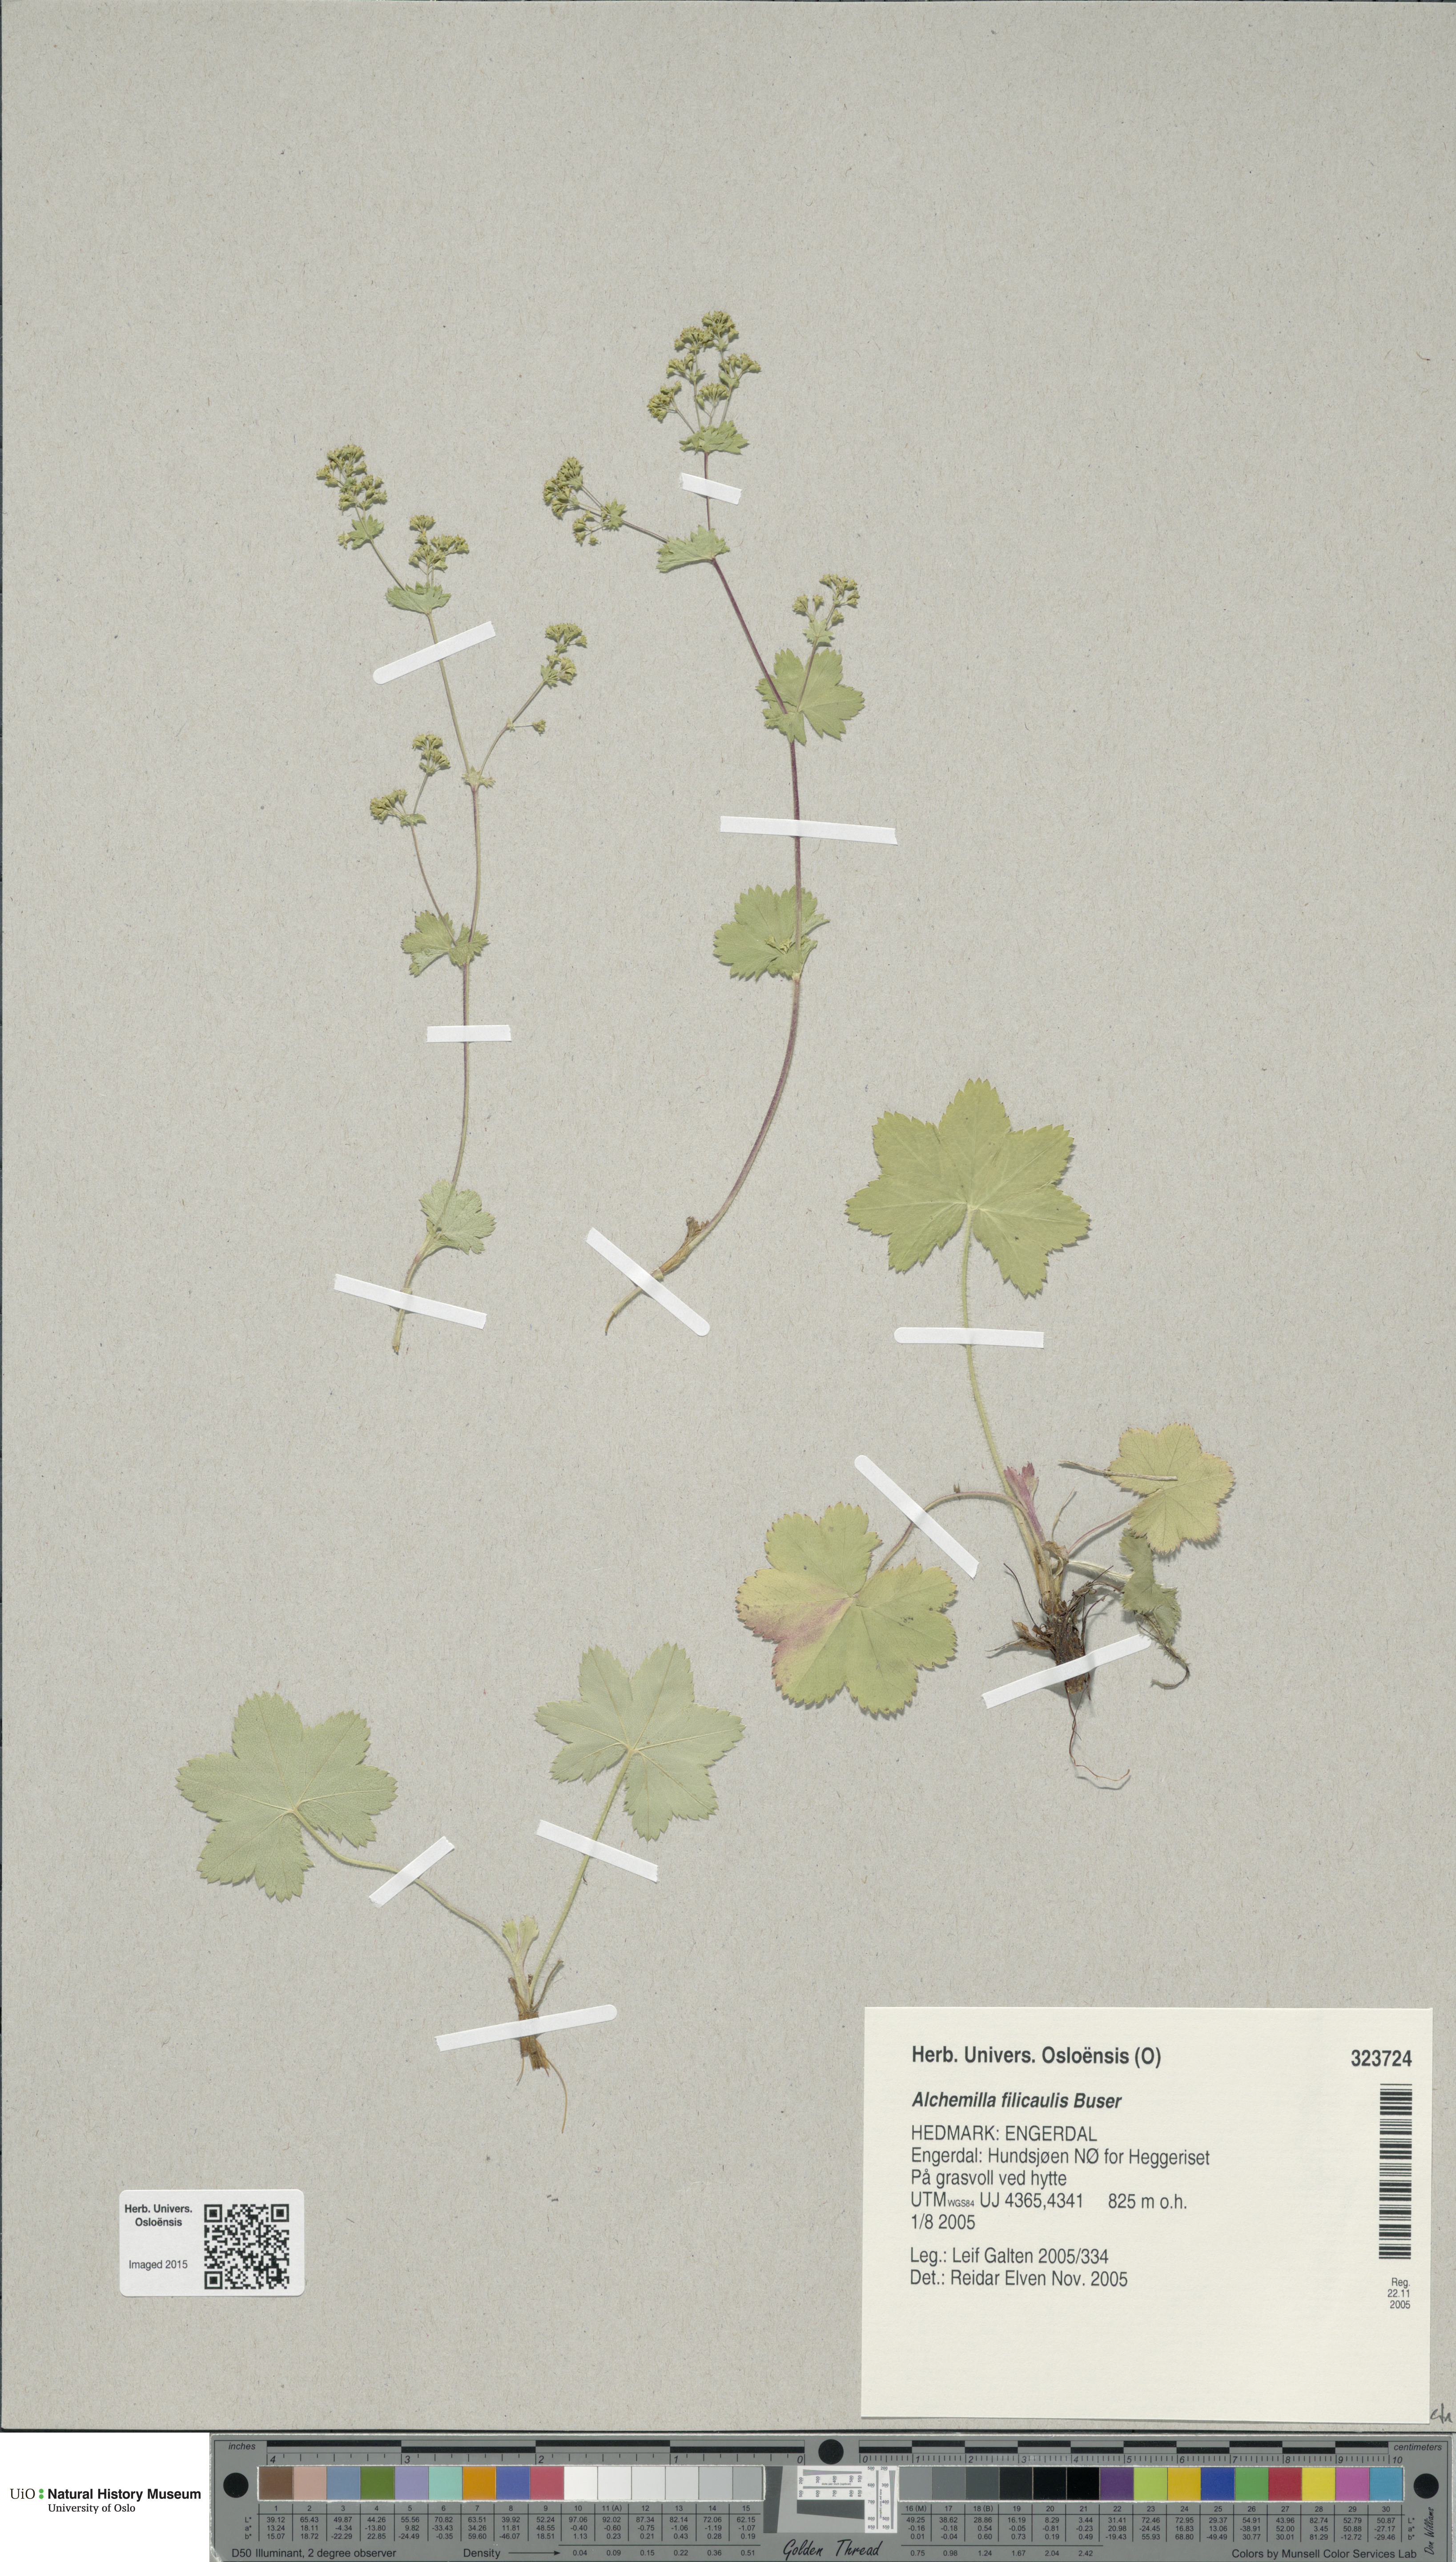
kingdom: Plantae
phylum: Tracheophyta
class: Magnoliopsida
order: Rosales
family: Rosaceae
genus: Alchemilla
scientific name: Alchemilla filicaulis
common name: Hairy lady's-mantle
